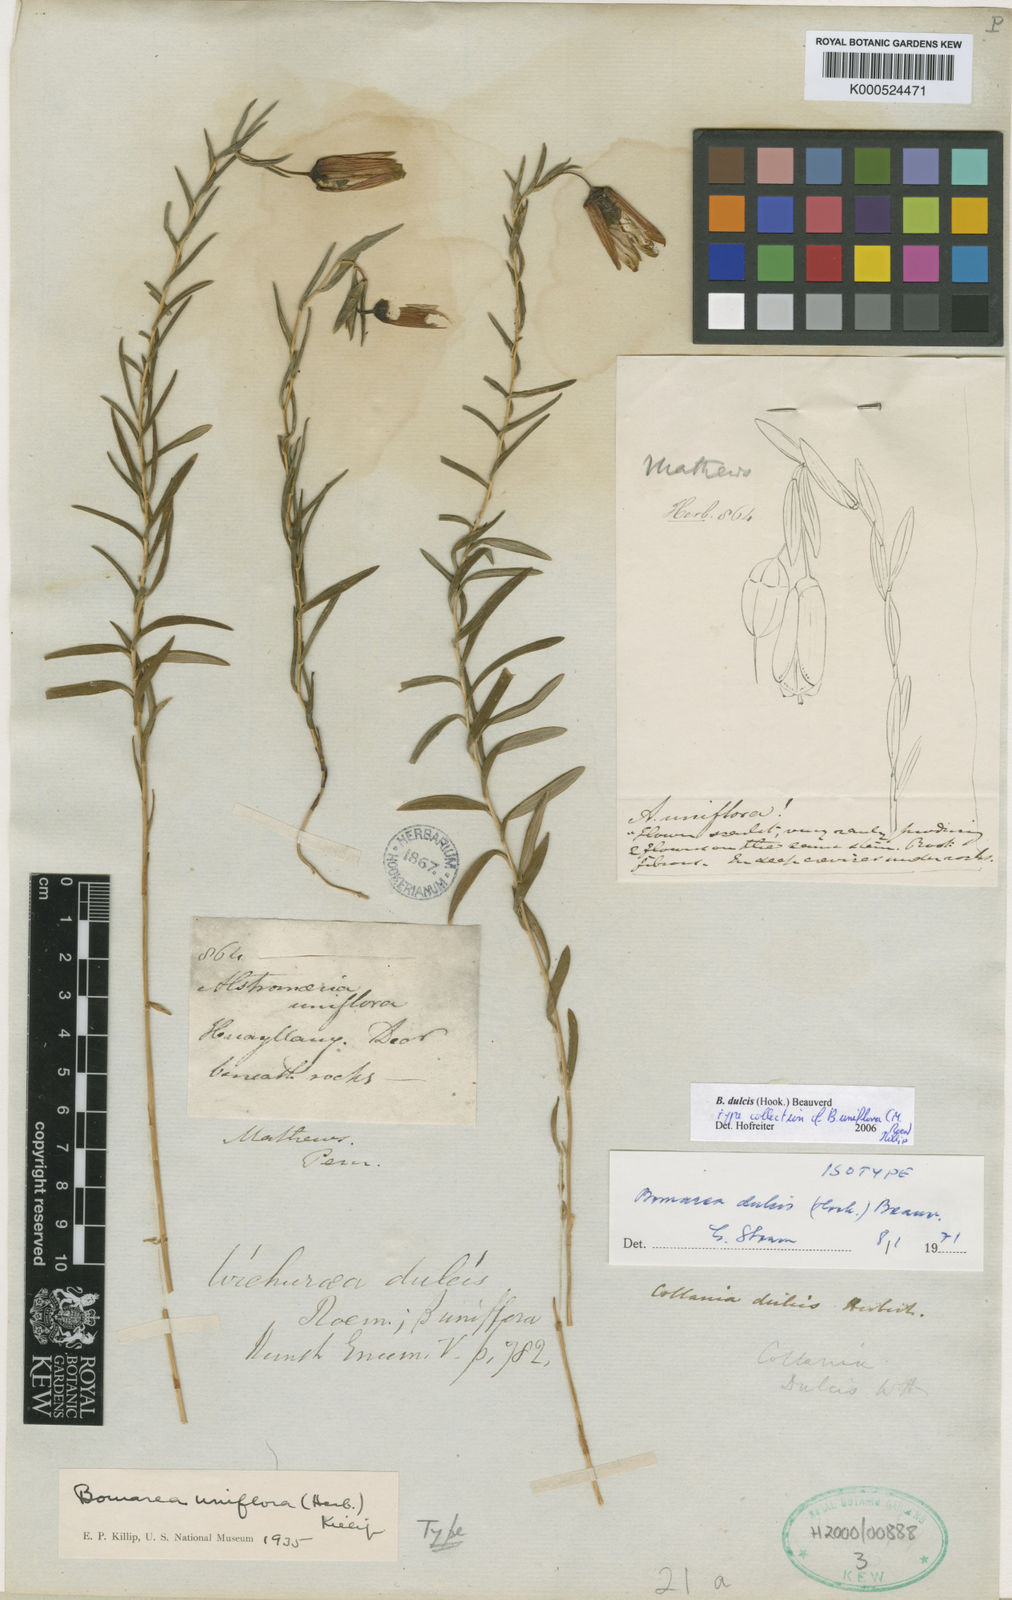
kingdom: Plantae
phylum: Tracheophyta
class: Liliopsida
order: Liliales
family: Alstroemeriaceae
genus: Bomarea
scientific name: Bomarea dulcis
